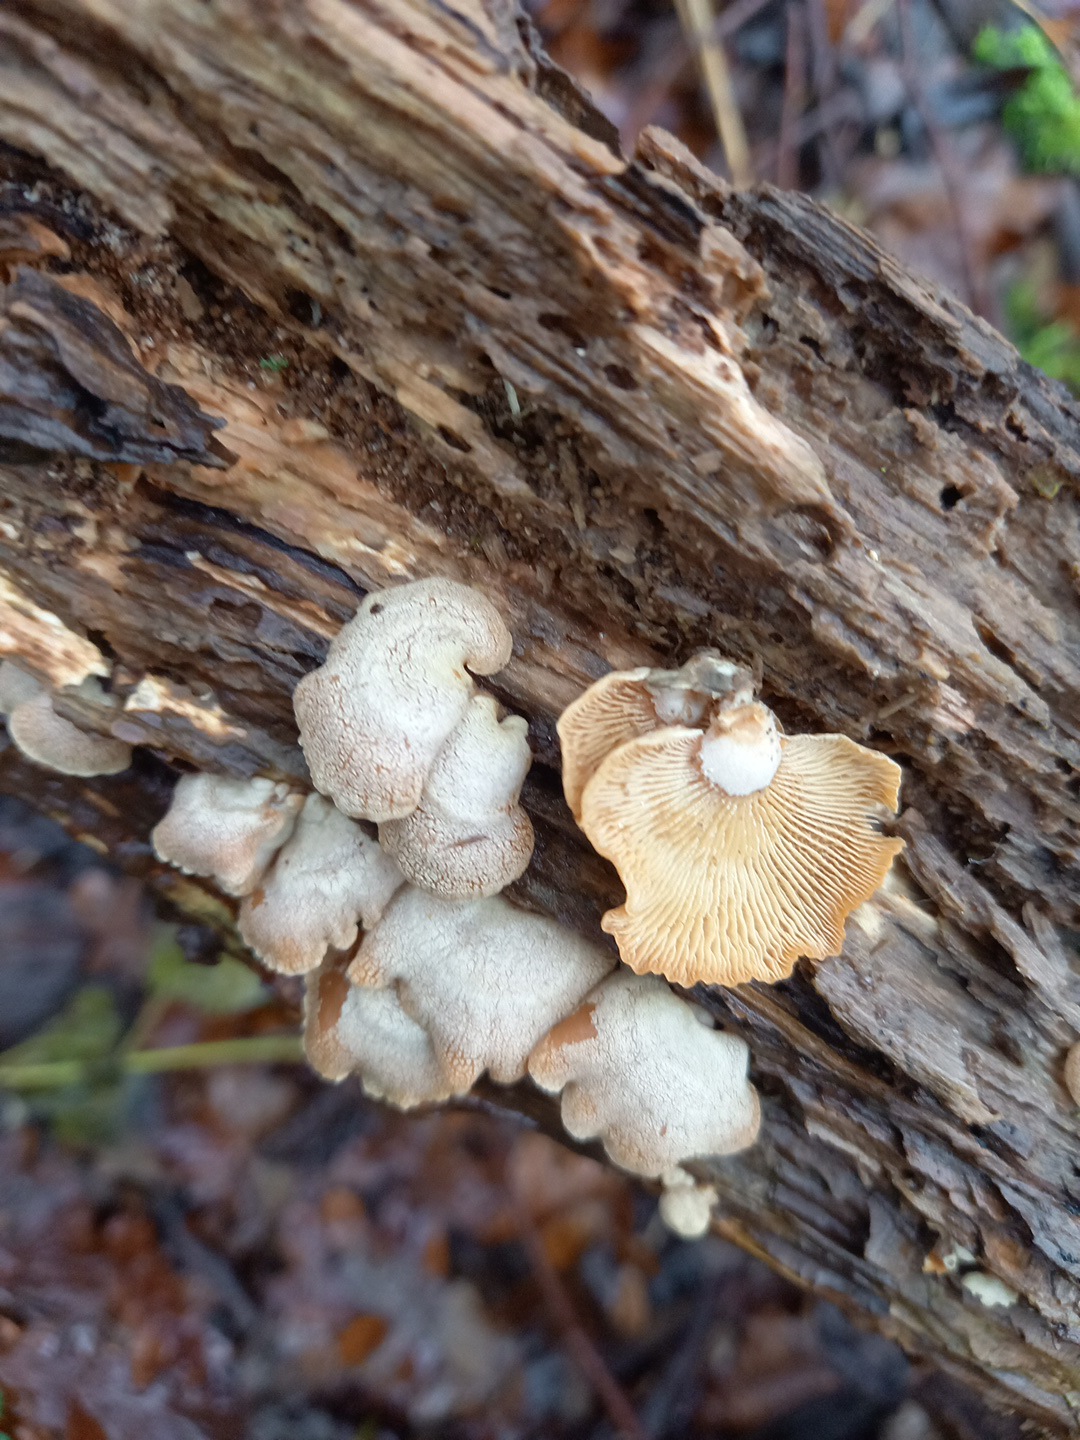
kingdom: Fungi
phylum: Basidiomycota
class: Agaricomycetes
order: Agaricales
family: Mycenaceae
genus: Panellus
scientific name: Panellus stipticus
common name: kliddet epaulethat
